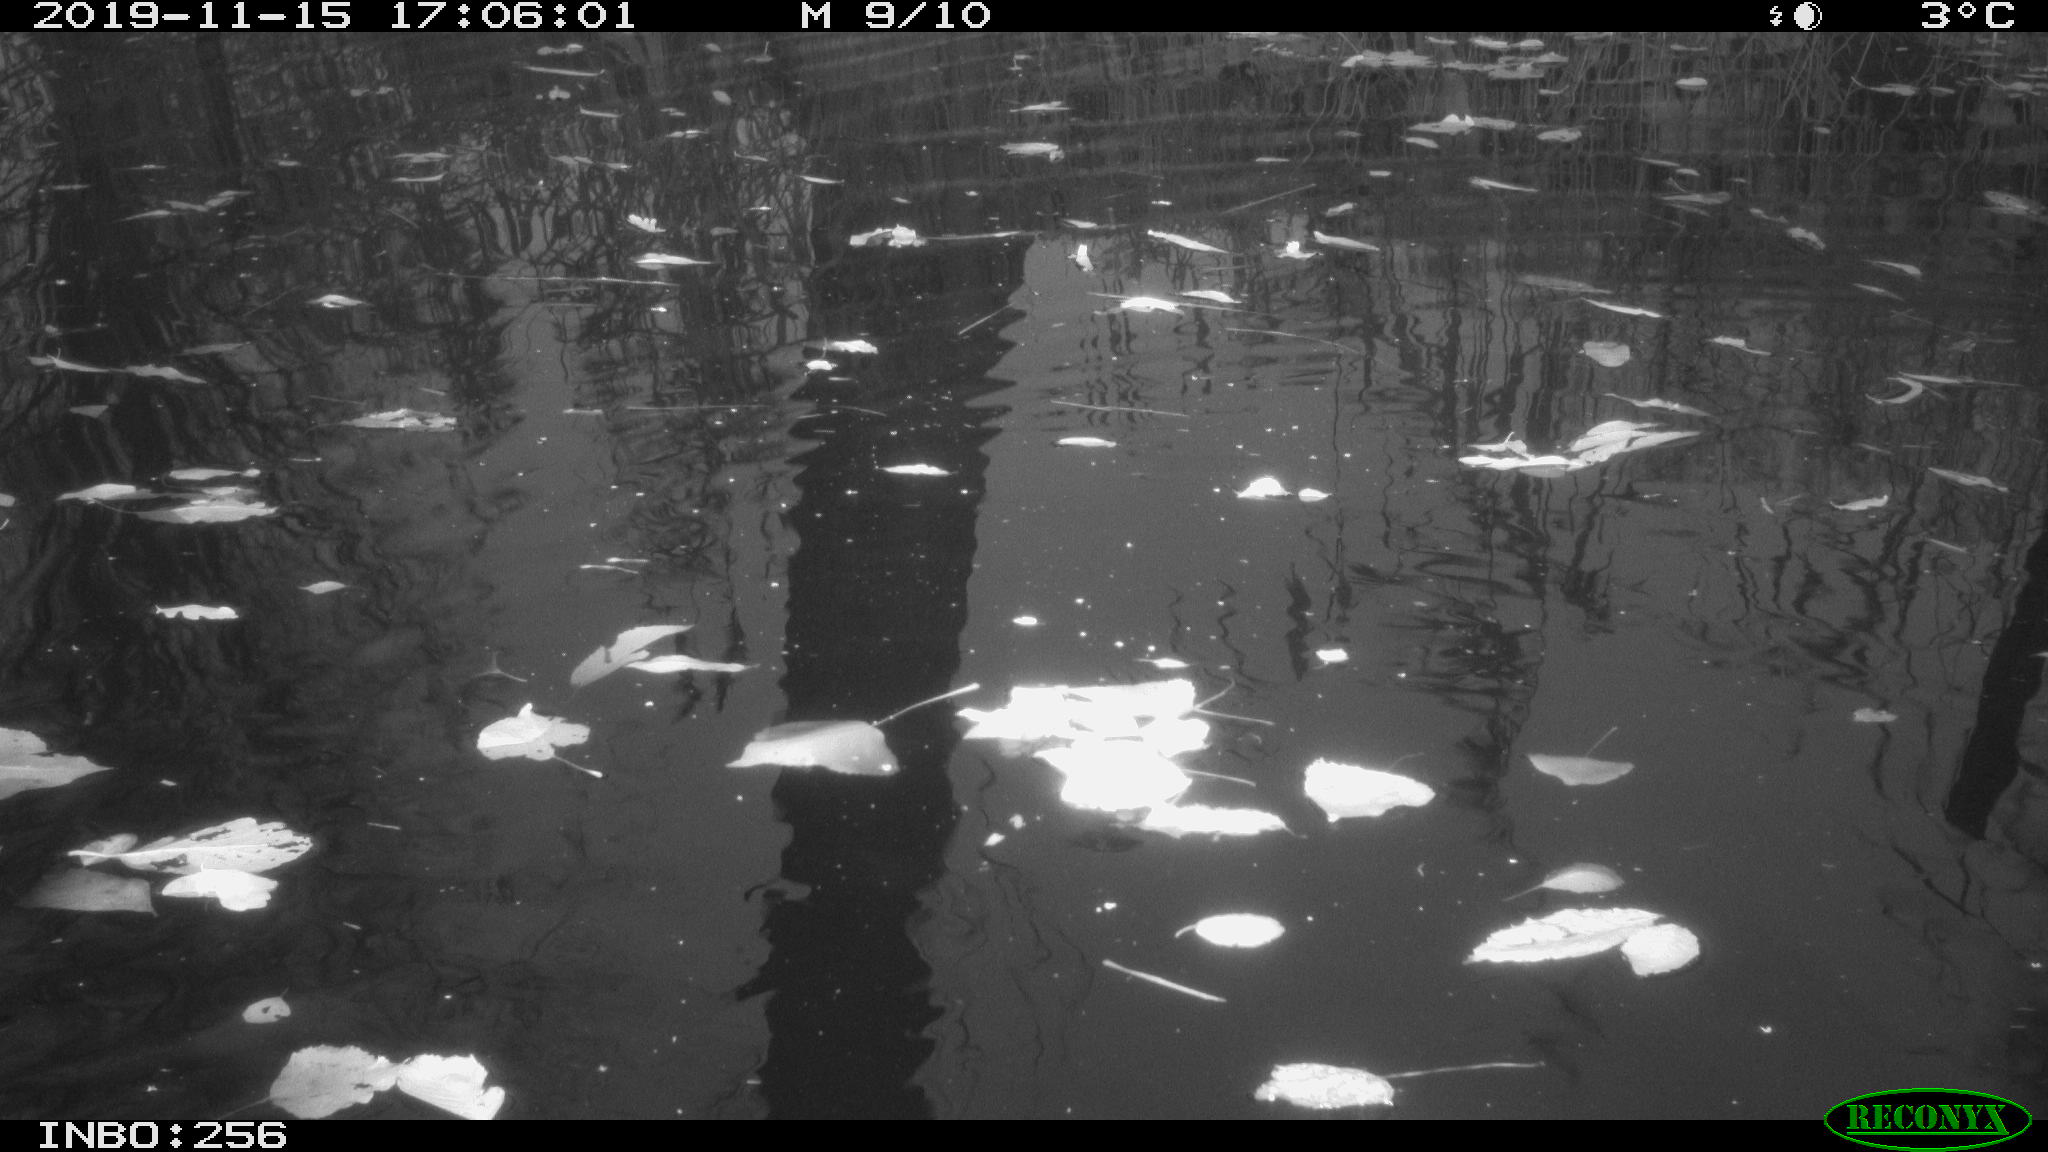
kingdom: Animalia
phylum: Chordata
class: Mammalia
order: Rodentia
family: Muridae
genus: Rattus
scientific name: Rattus norvegicus
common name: Brown rat
